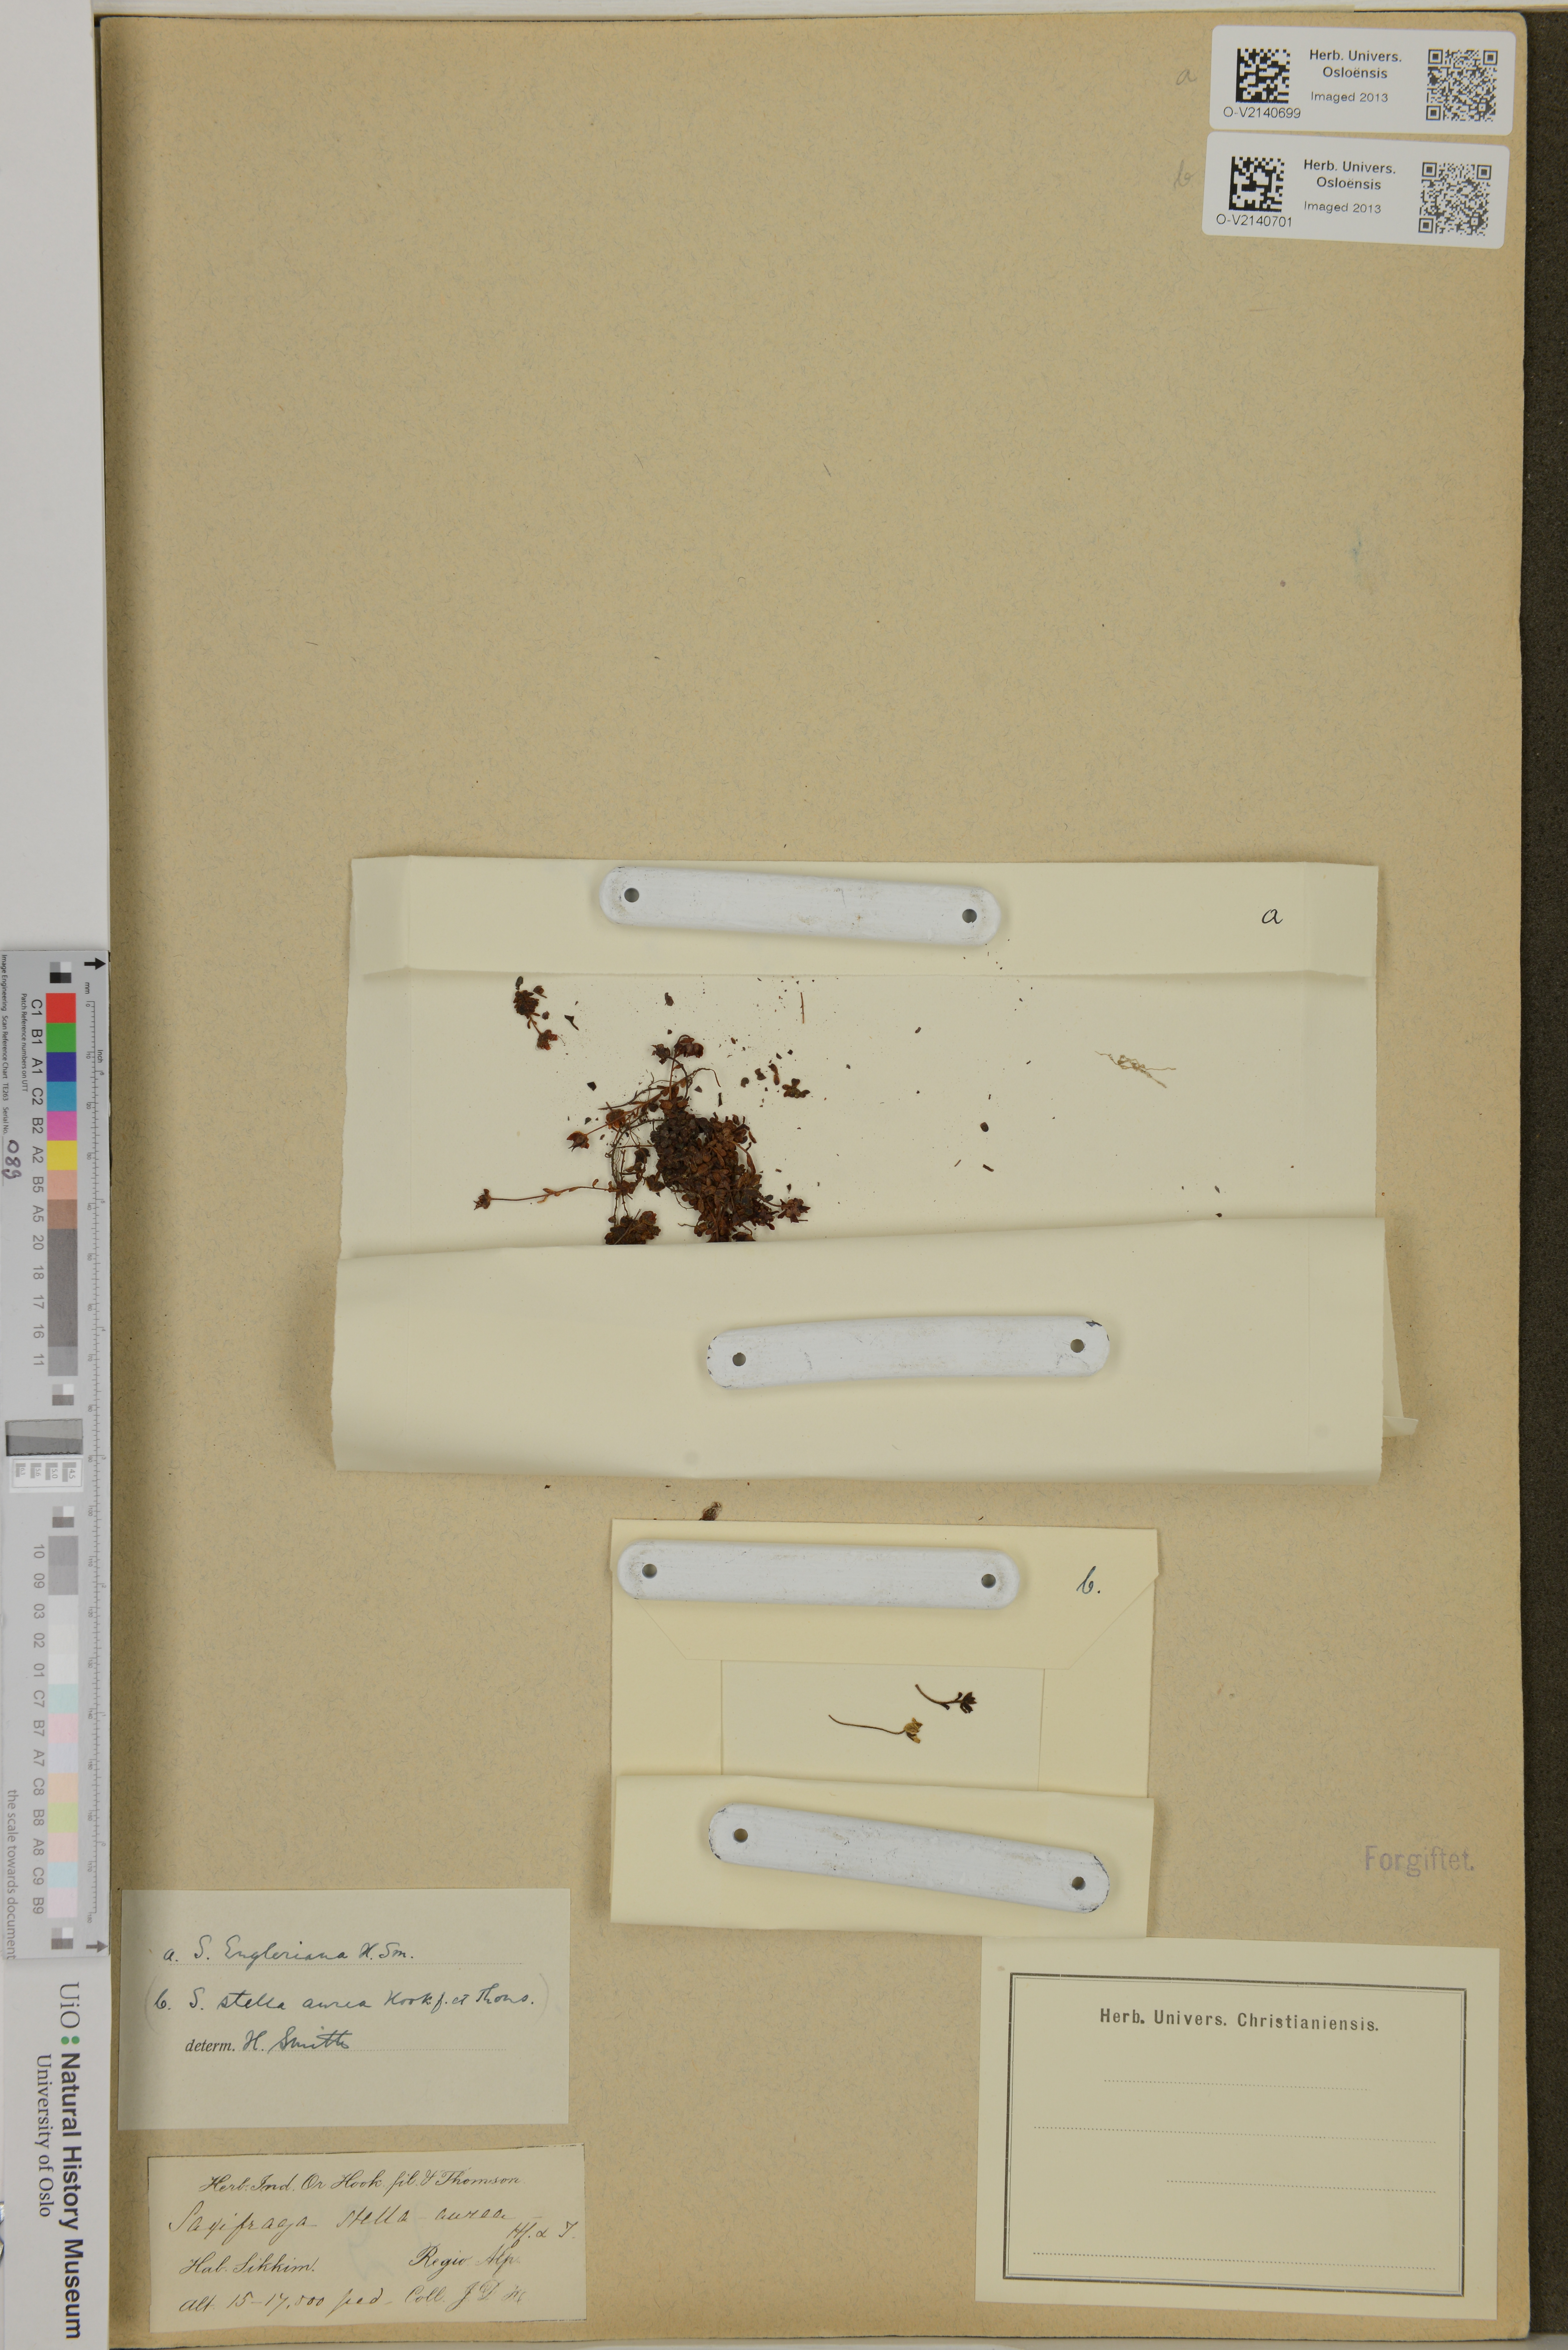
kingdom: Plantae
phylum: Tracheophyta
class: Magnoliopsida
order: Saxifragales
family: Saxifragaceae
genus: Saxifraga
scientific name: Saxifraga engleriana
